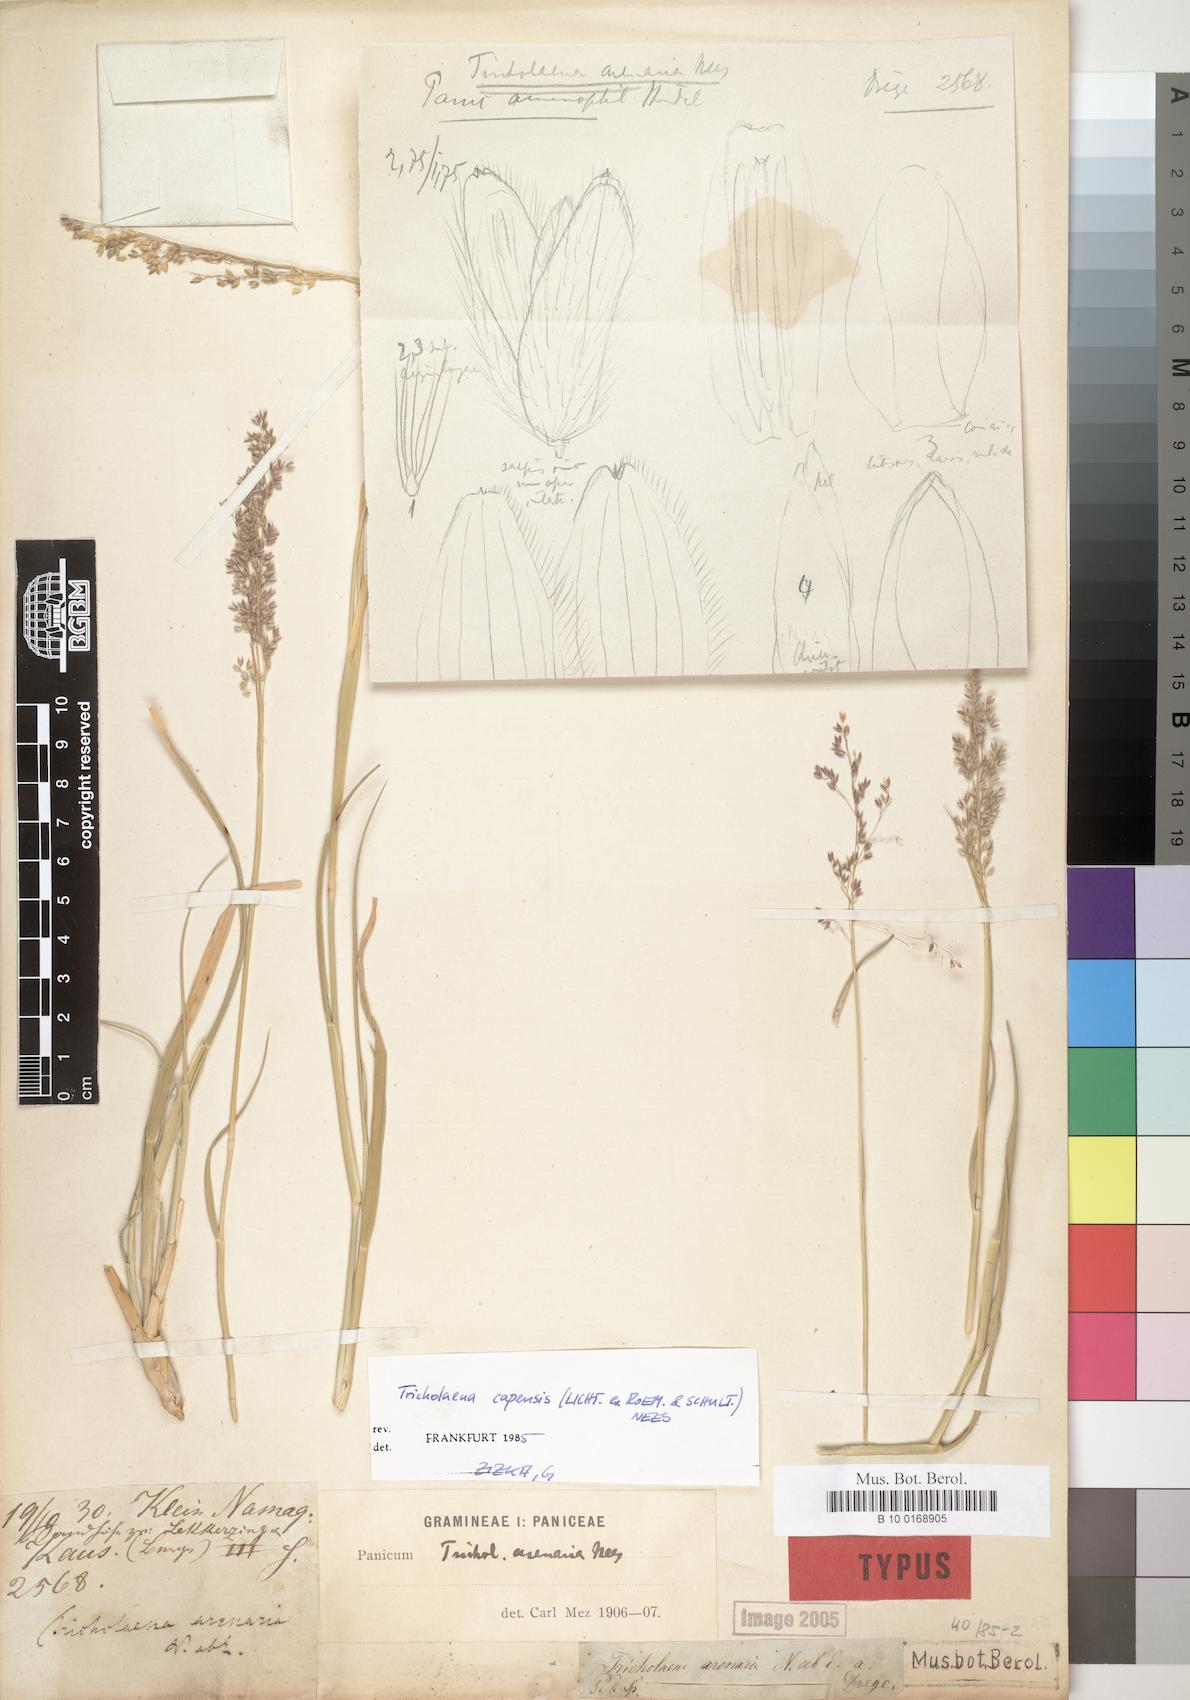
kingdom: Plantae
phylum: Tracheophyta
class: Liliopsida
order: Poales
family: Poaceae
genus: Tricholaena
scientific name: Tricholaena capensis
